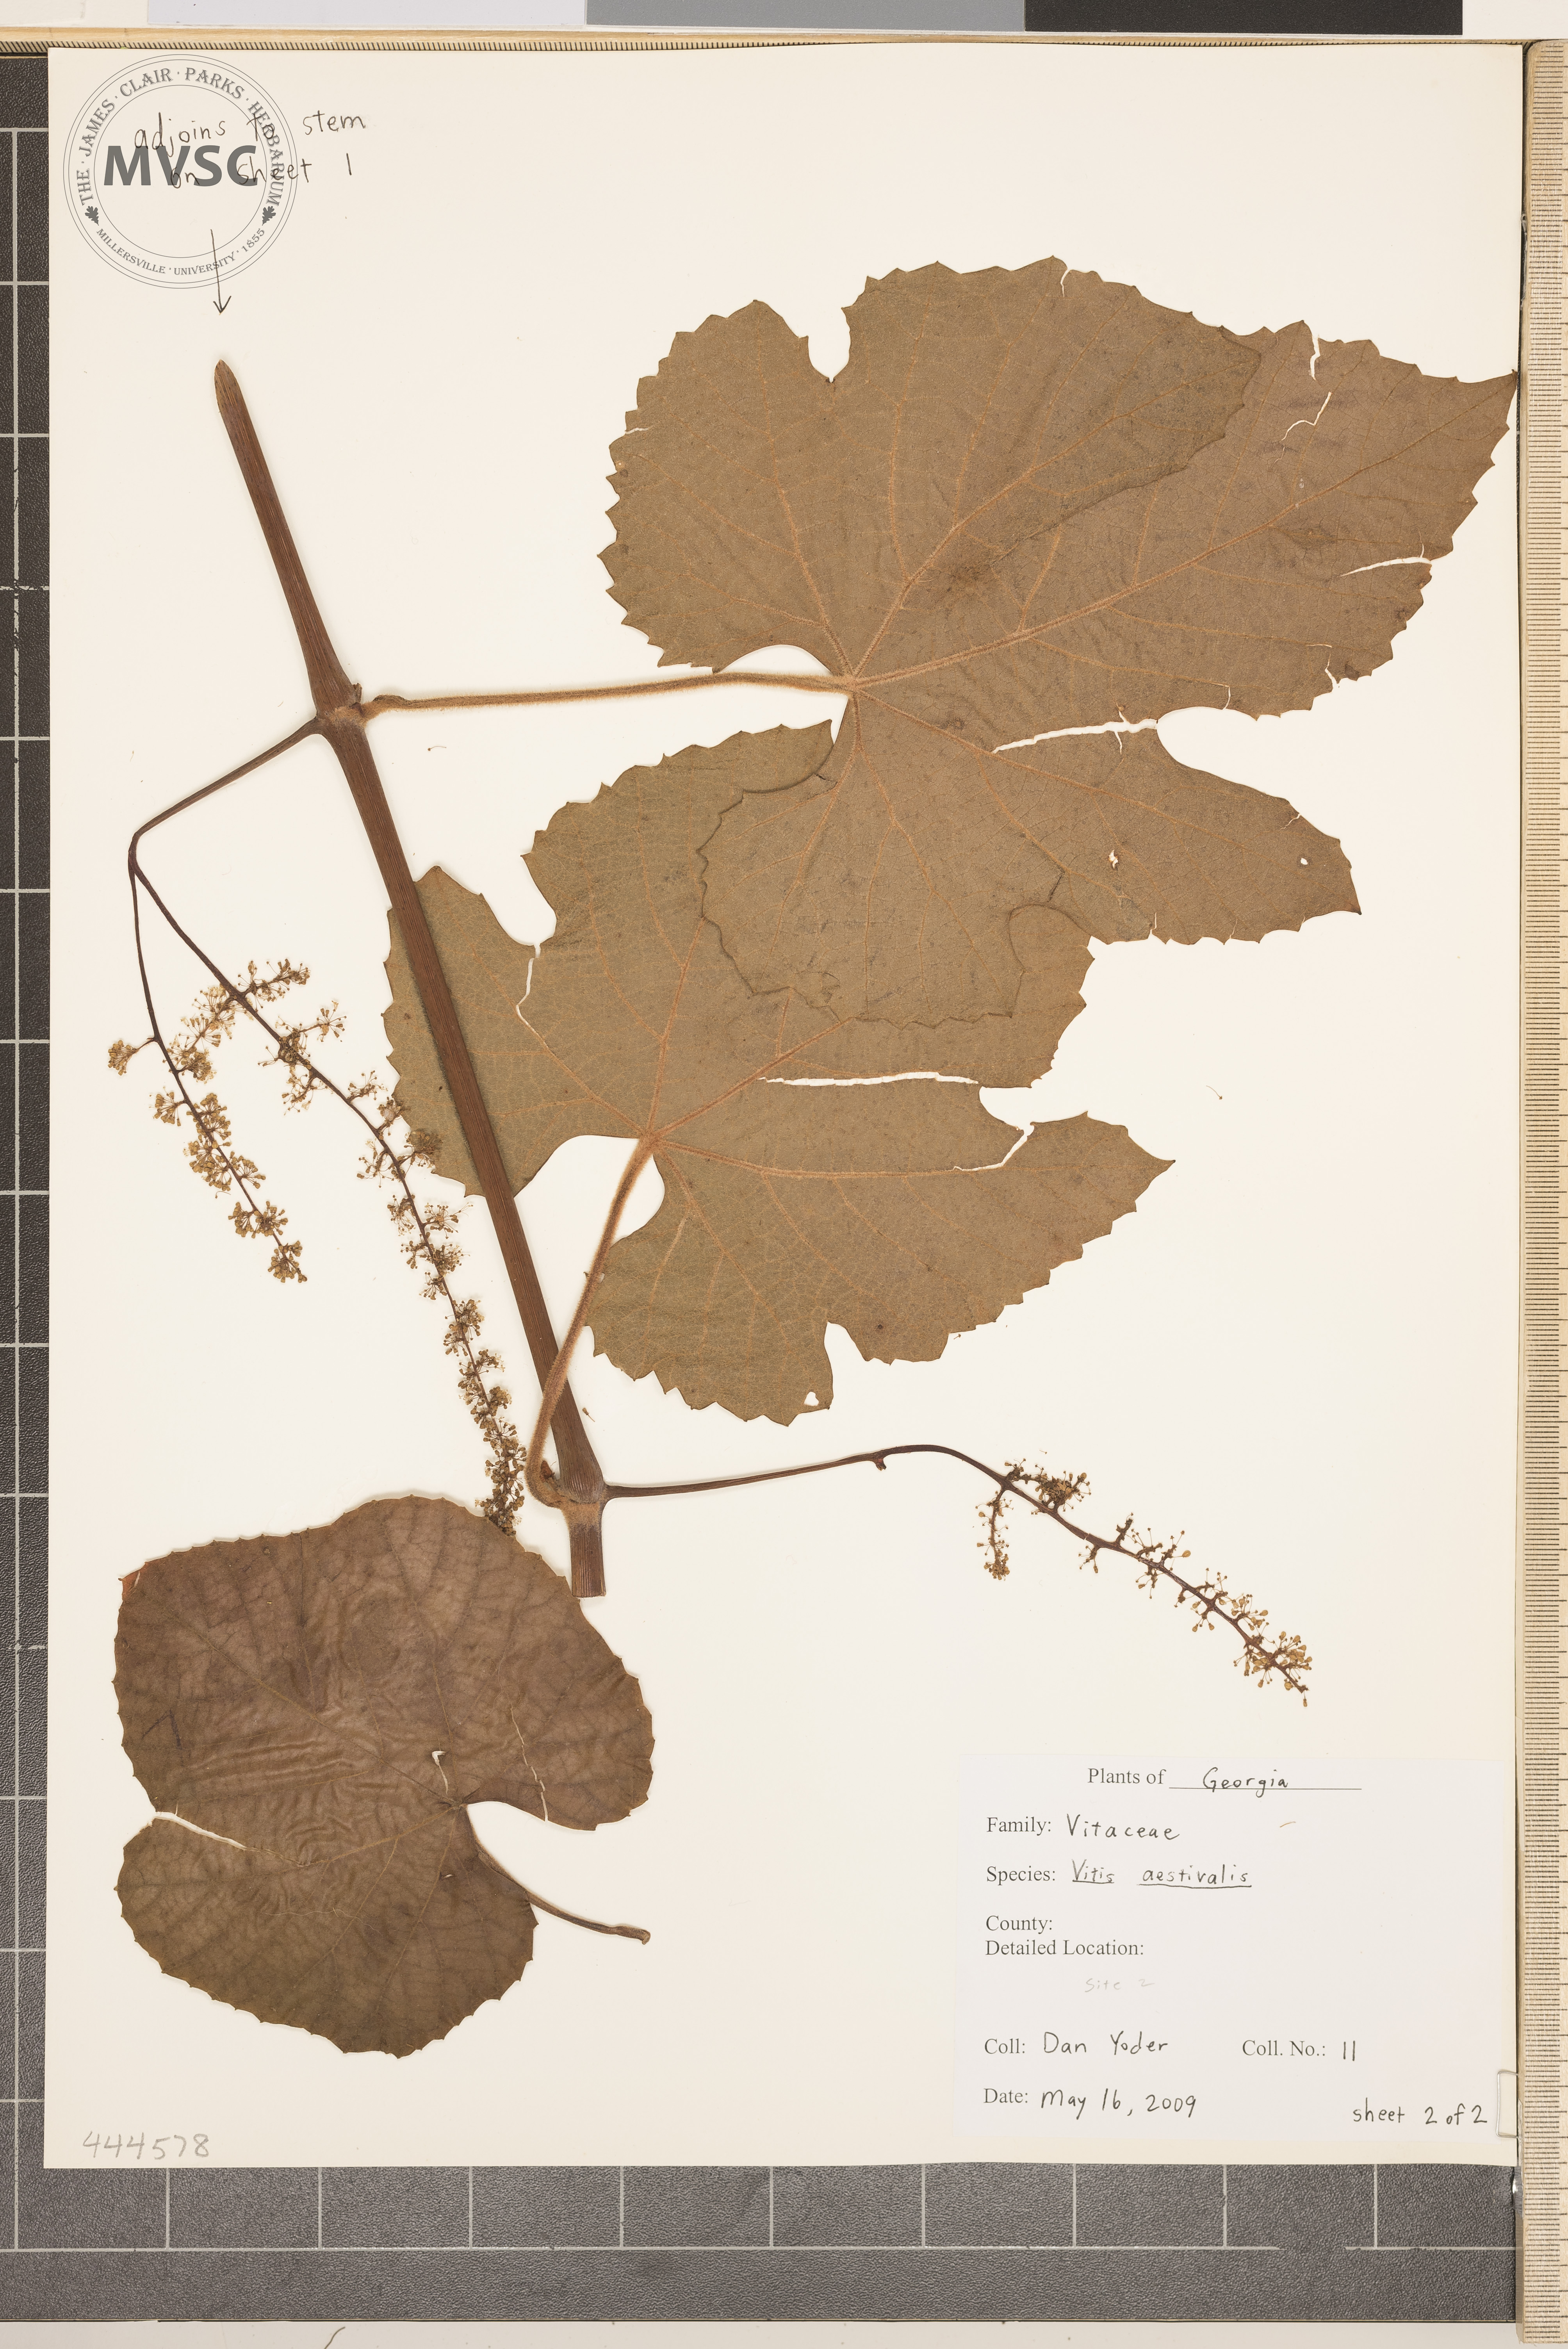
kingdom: Plantae
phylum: Tracheophyta
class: Magnoliopsida
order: Vitales
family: Vitaceae
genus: Vitis
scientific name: Vitis aestivalis
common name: Pigeon grape
